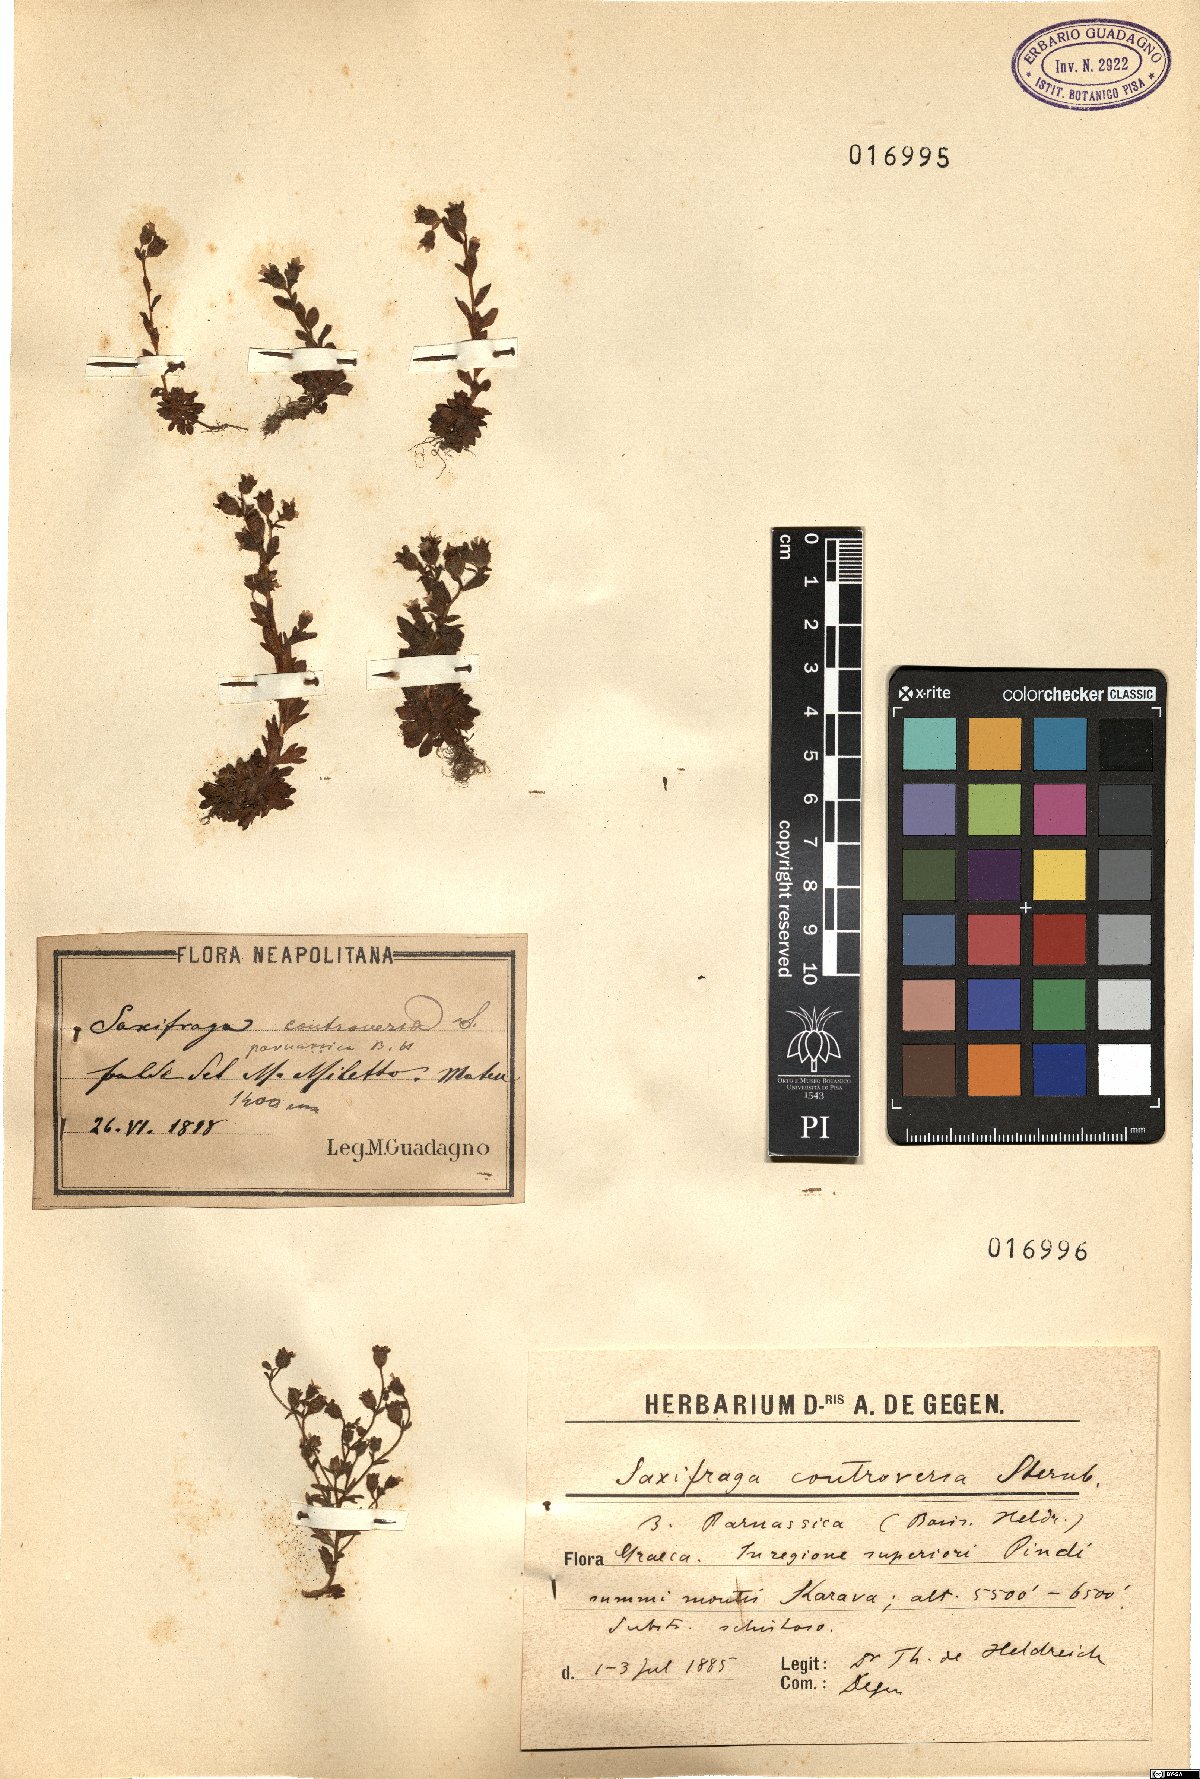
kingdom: Plantae
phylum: Tracheophyta
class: Magnoliopsida
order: Saxifragales
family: Saxifragaceae
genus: Saxifraga
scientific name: Saxifraga
